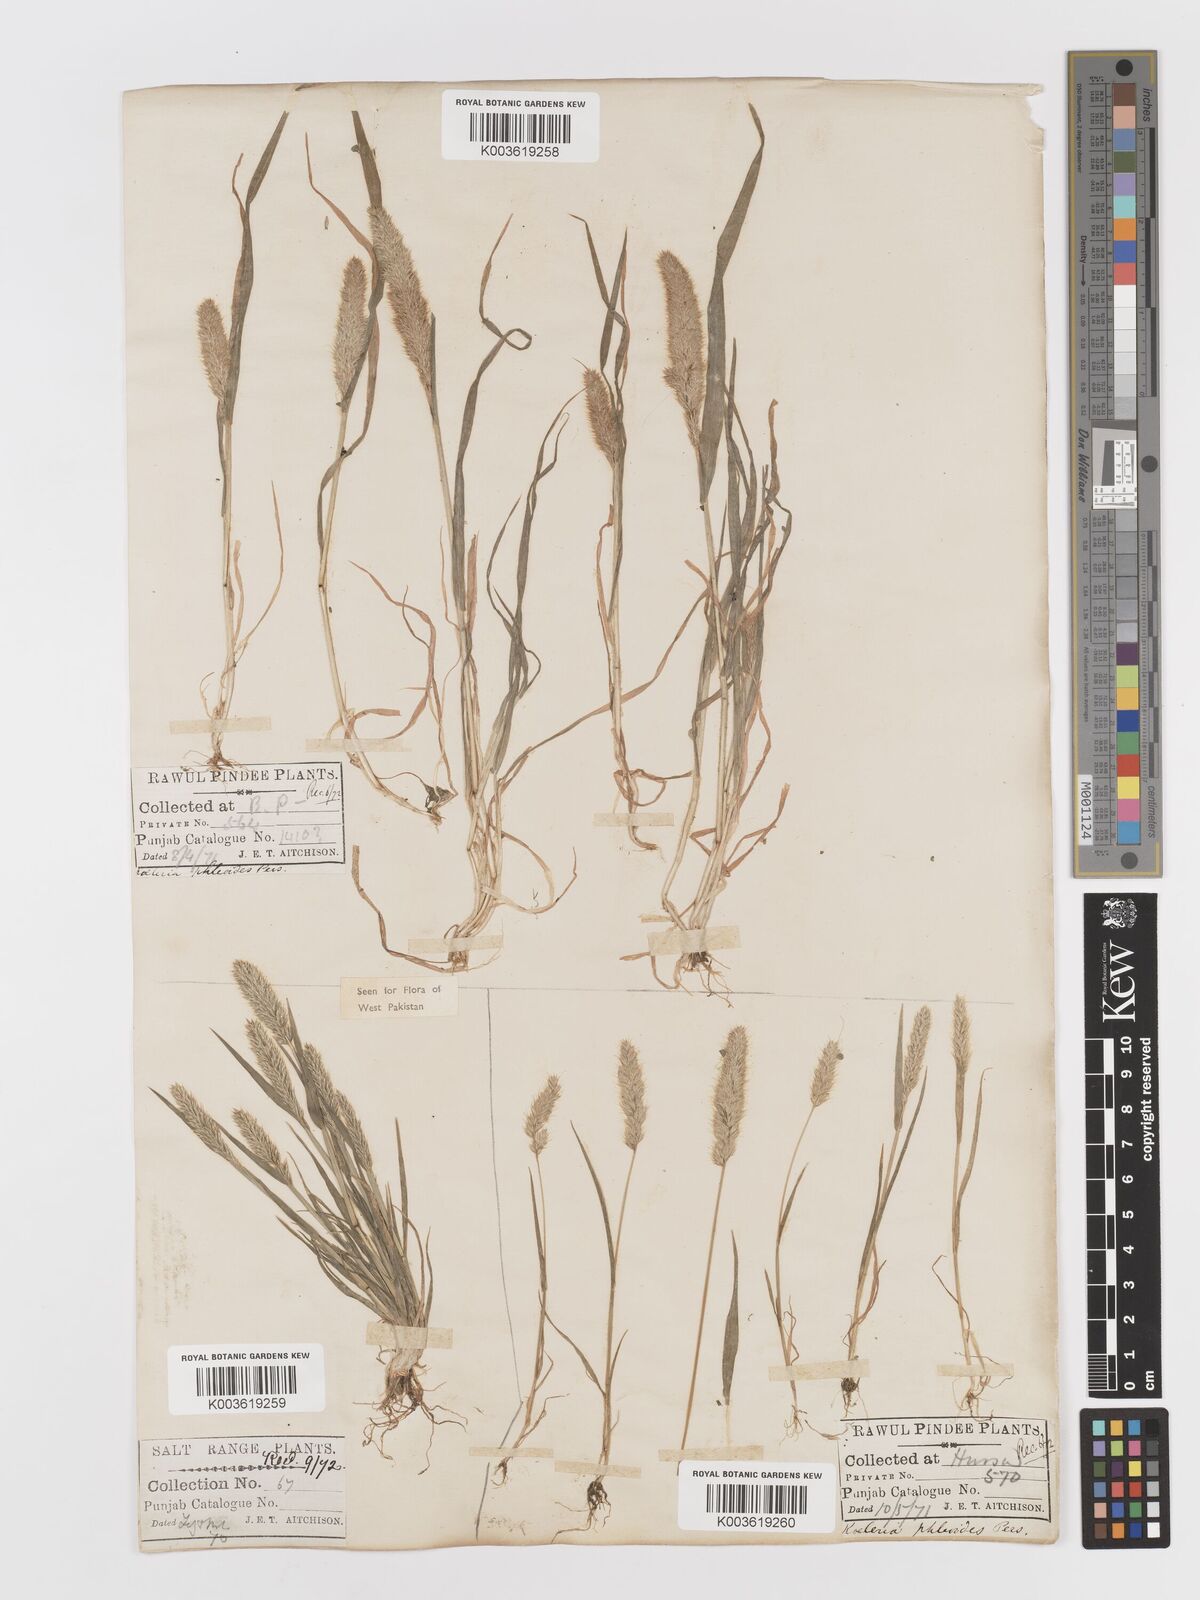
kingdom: Plantae
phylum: Tracheophyta
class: Liliopsida
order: Poales
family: Poaceae
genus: Rostraria
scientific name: Rostraria cristata
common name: Mediterranean hair-grass
